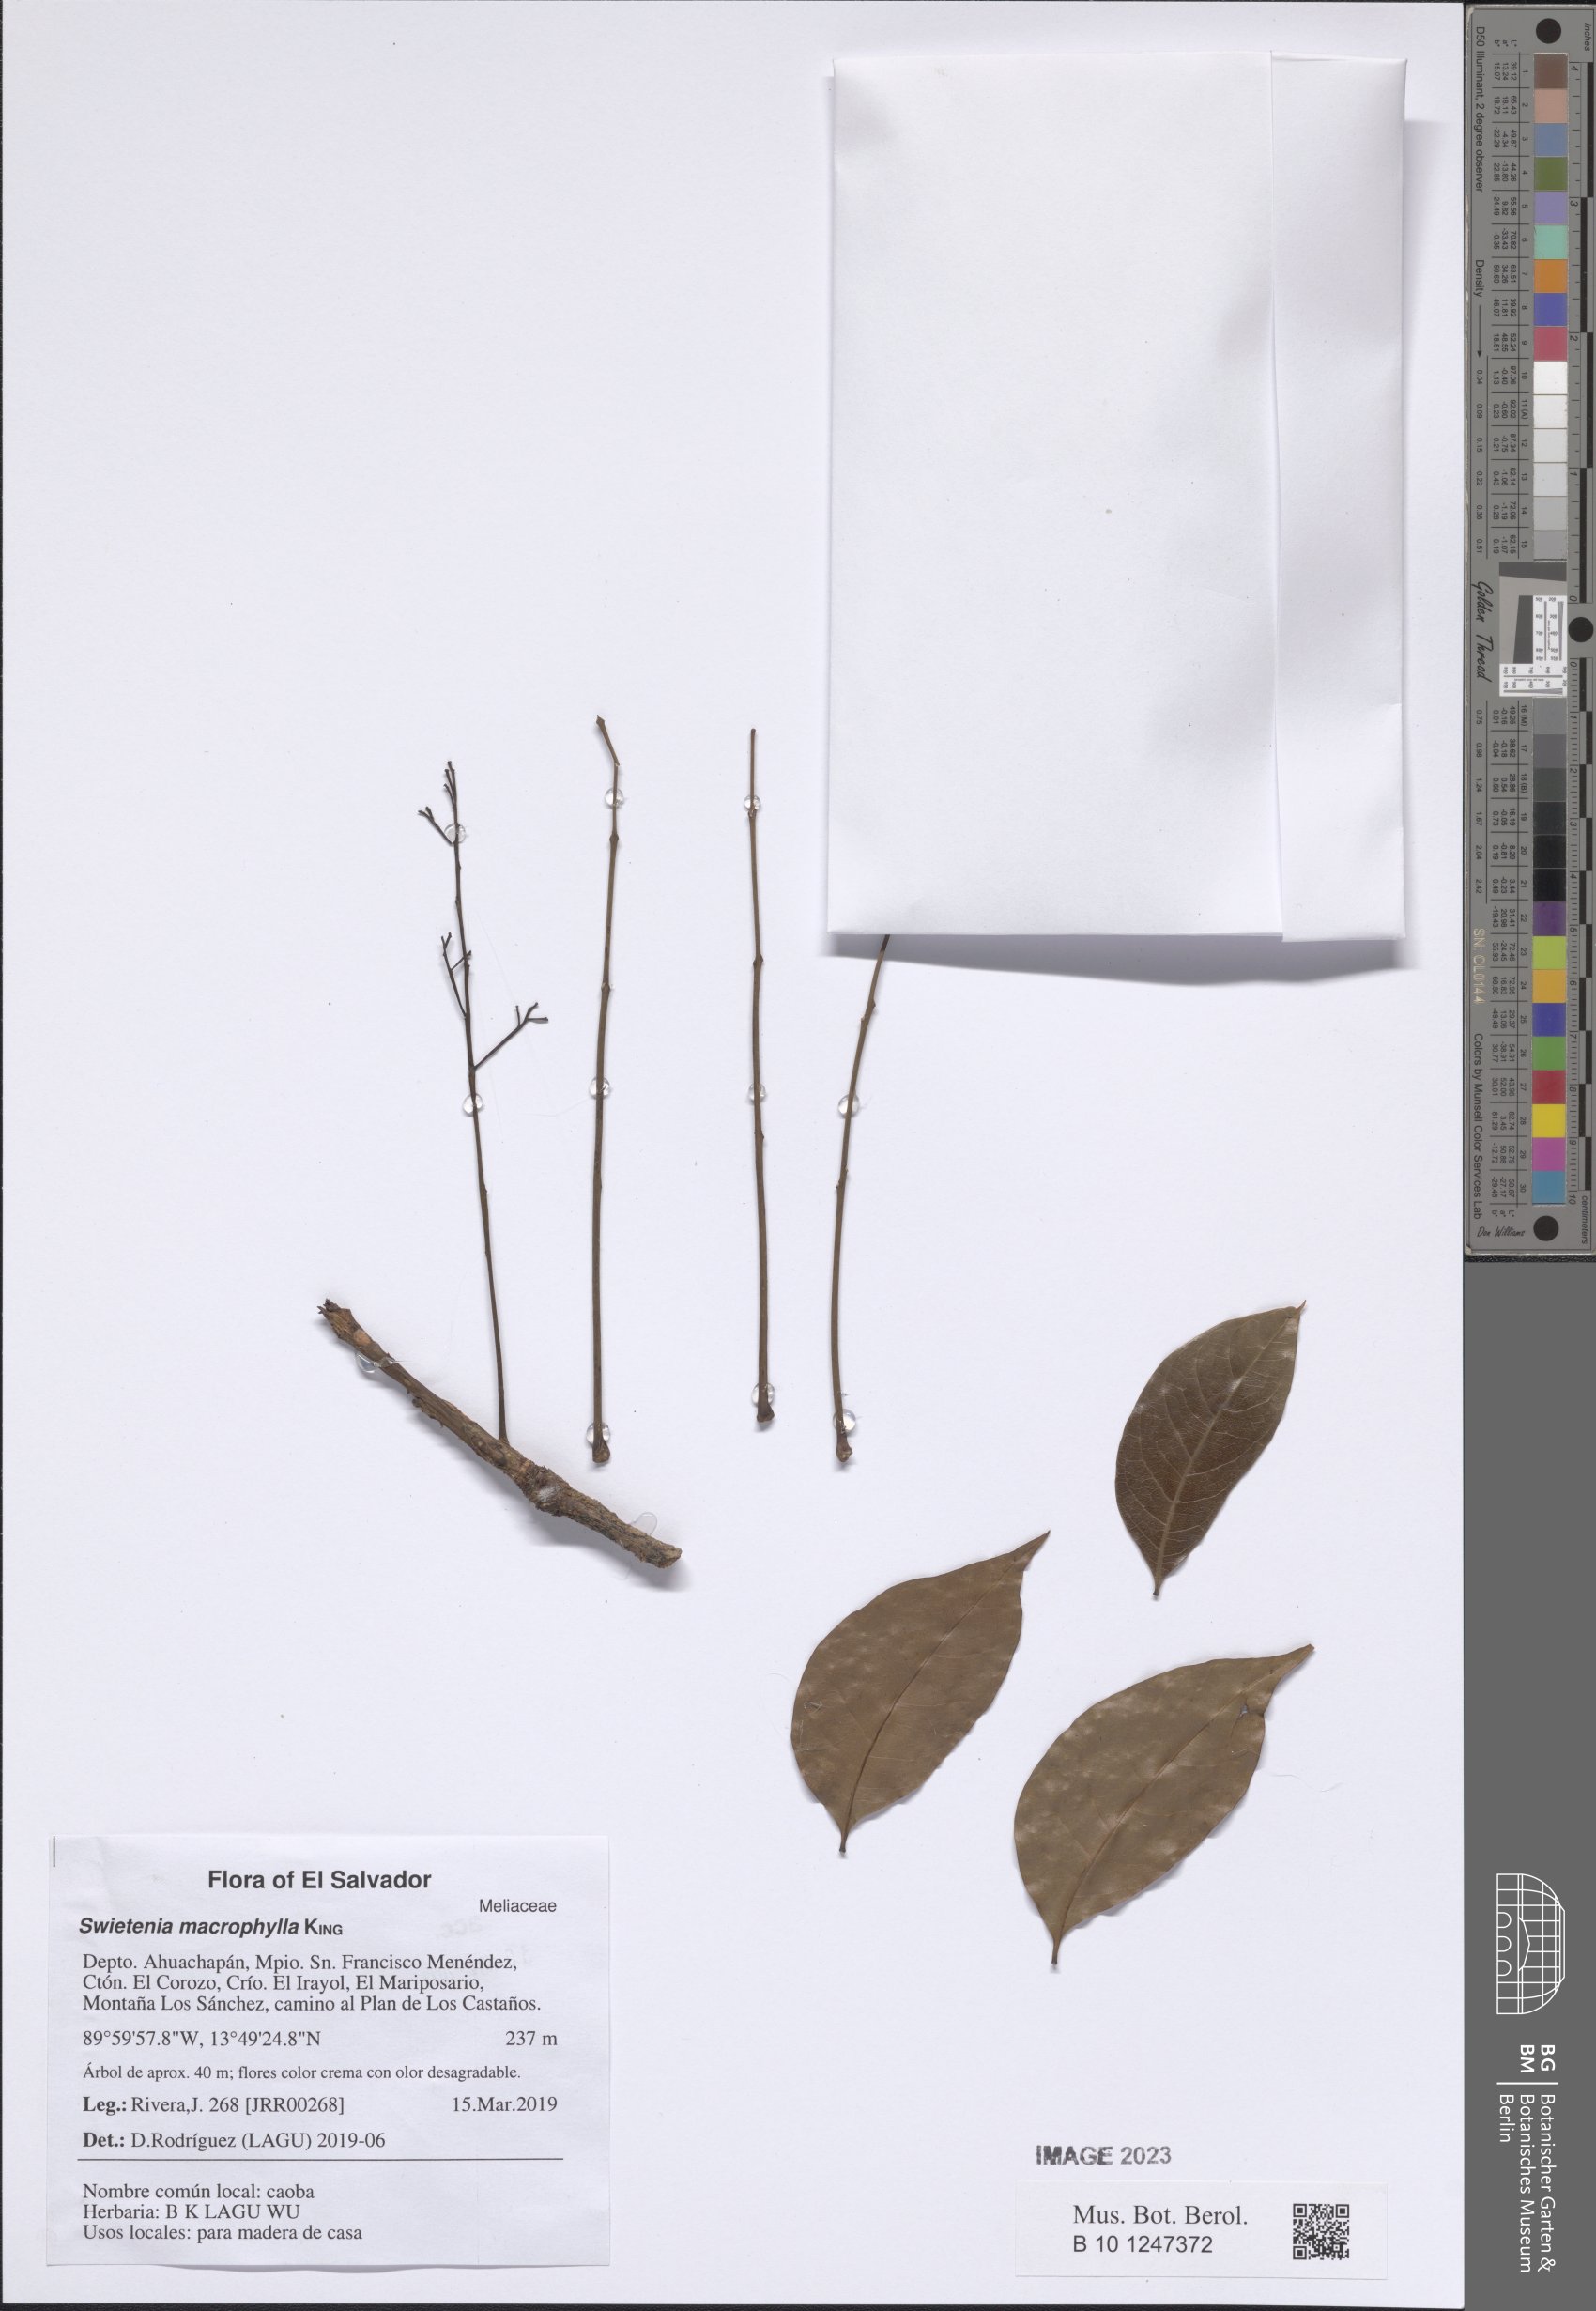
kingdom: Plantae
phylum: Tracheophyta
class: Magnoliopsida
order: Sapindales
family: Meliaceae
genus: Swietenia
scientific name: Swietenia macrophylla
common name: Honduras mahogany
